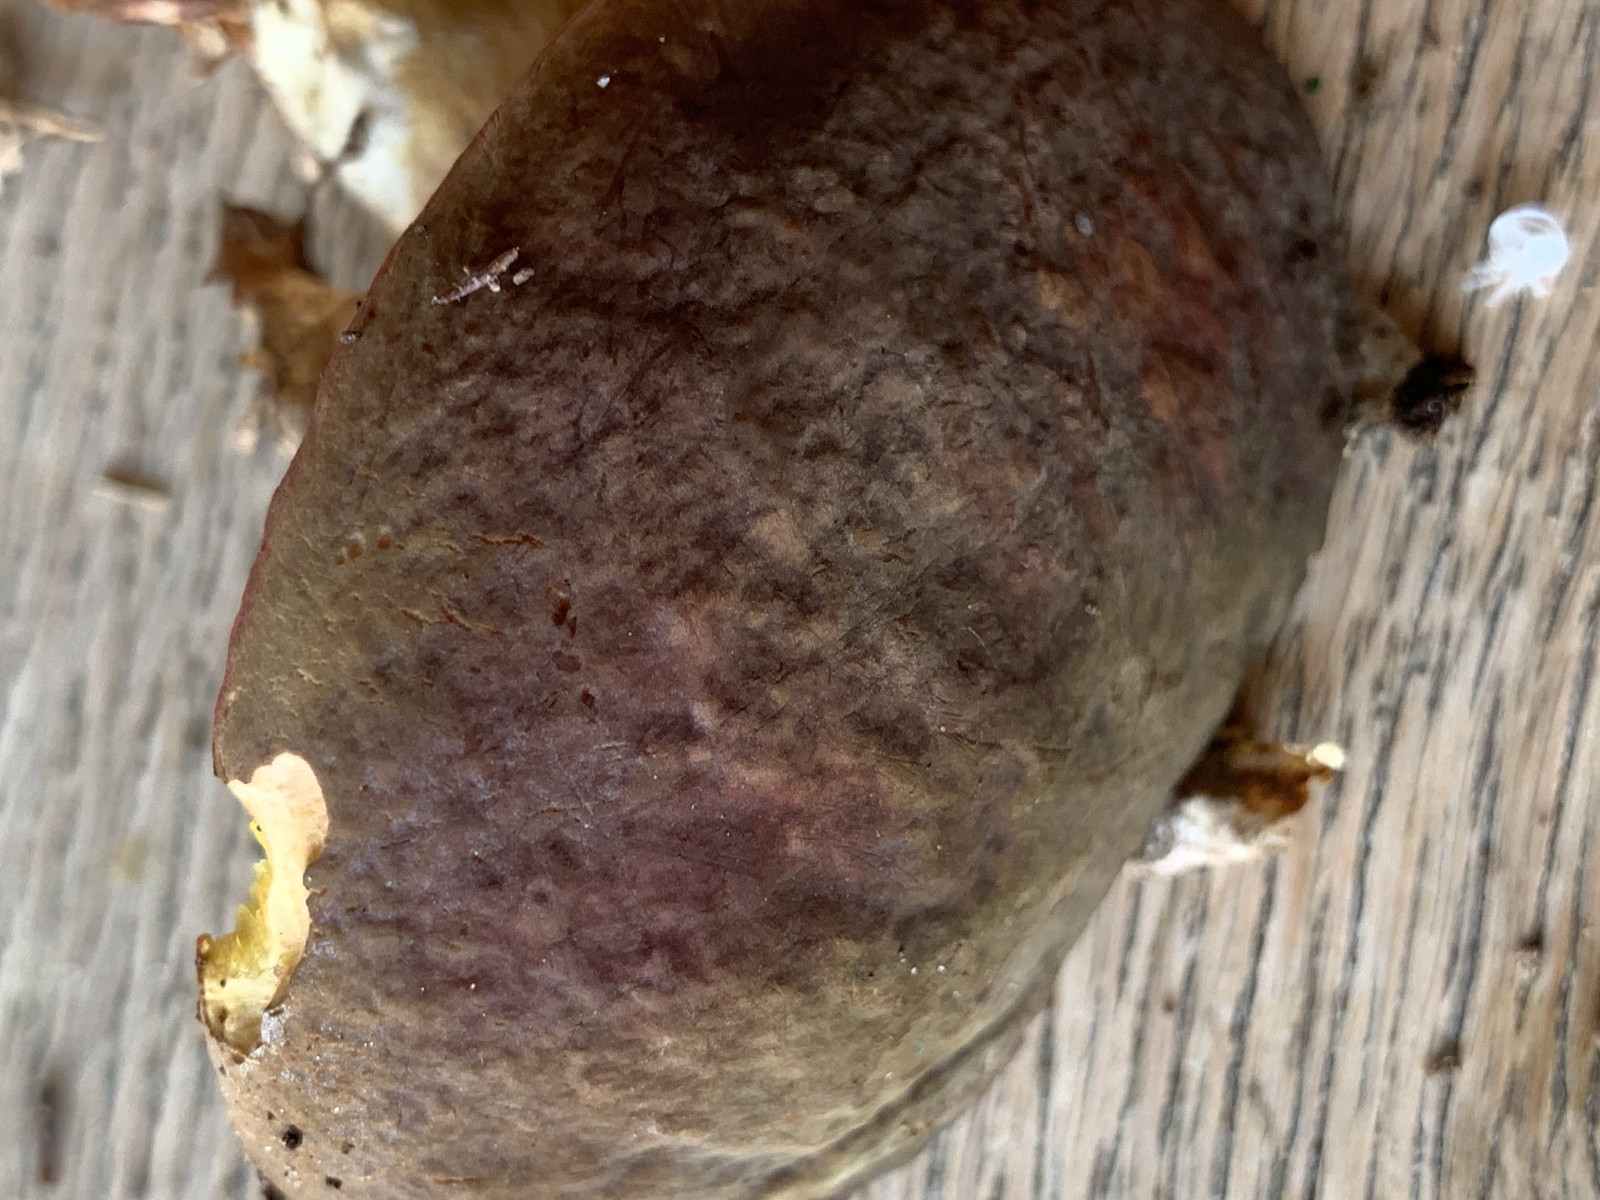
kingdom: Fungi
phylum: Basidiomycota
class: Agaricomycetes
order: Boletales
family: Boletaceae
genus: Xerocomellus
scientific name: Xerocomellus pruinatus
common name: dugget rørhat
